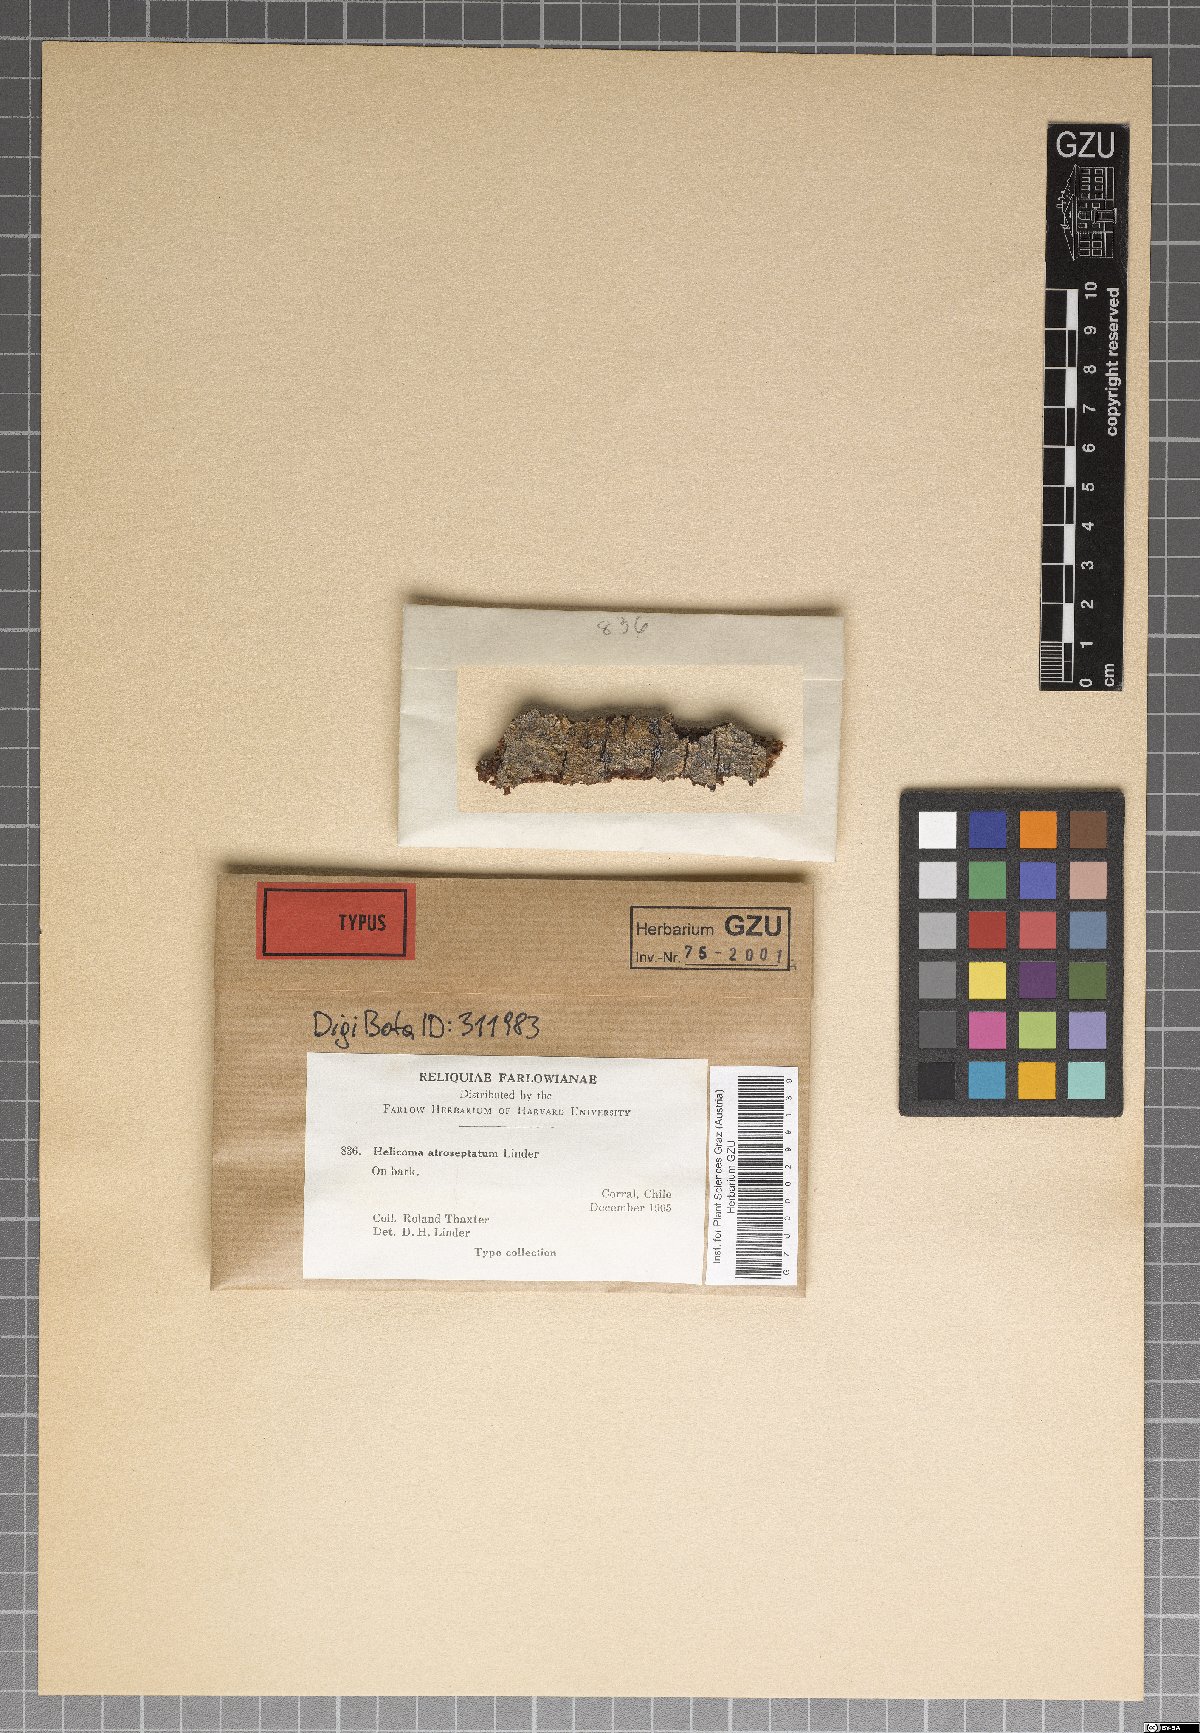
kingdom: Fungi
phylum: Ascomycota
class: Dothideomycetes
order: Tubeufiales
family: Tubeufiaceae
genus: Helicoma
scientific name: Helicoma atroseptatum
